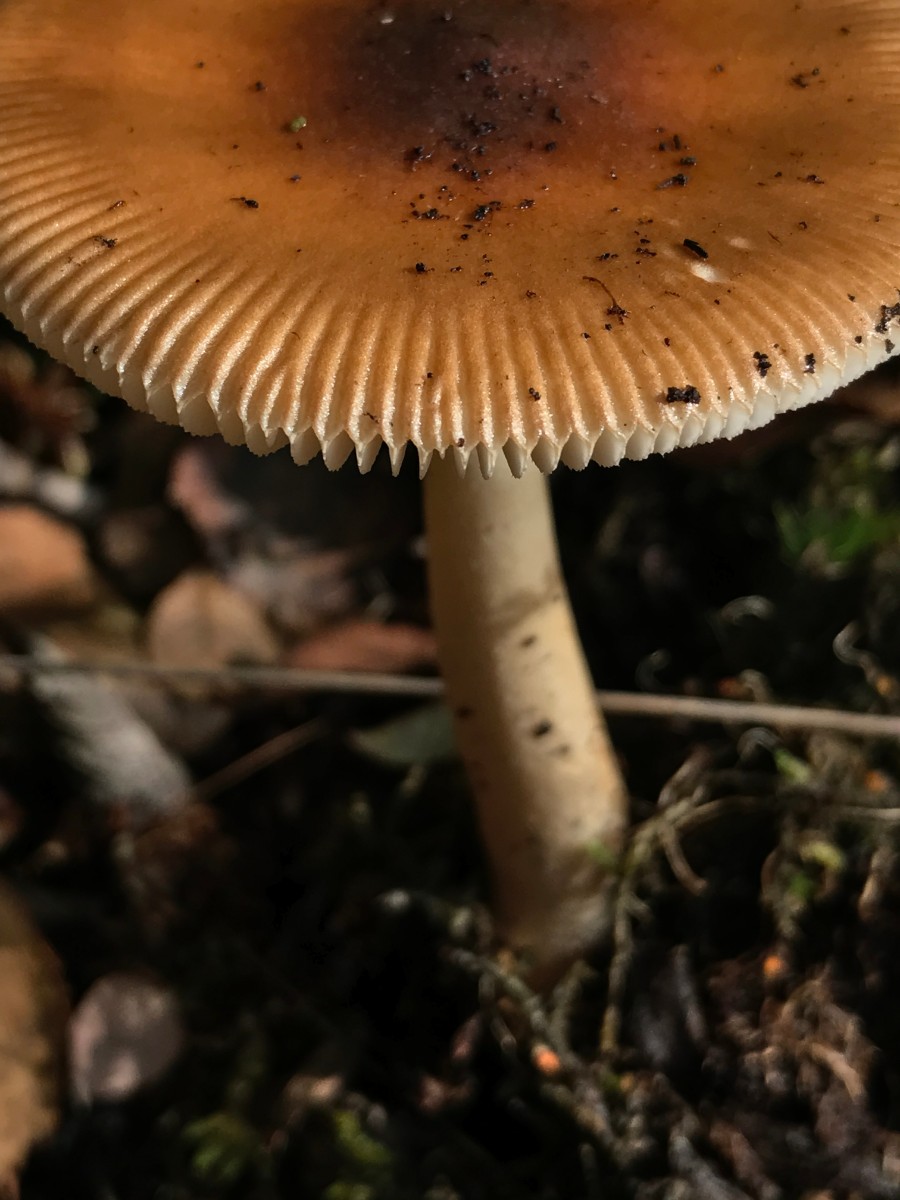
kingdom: Fungi
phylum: Basidiomycota
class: Agaricomycetes
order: Agaricales
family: Amanitaceae
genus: Amanita
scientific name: Amanita fulva
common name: brun kam-fluesvamp
